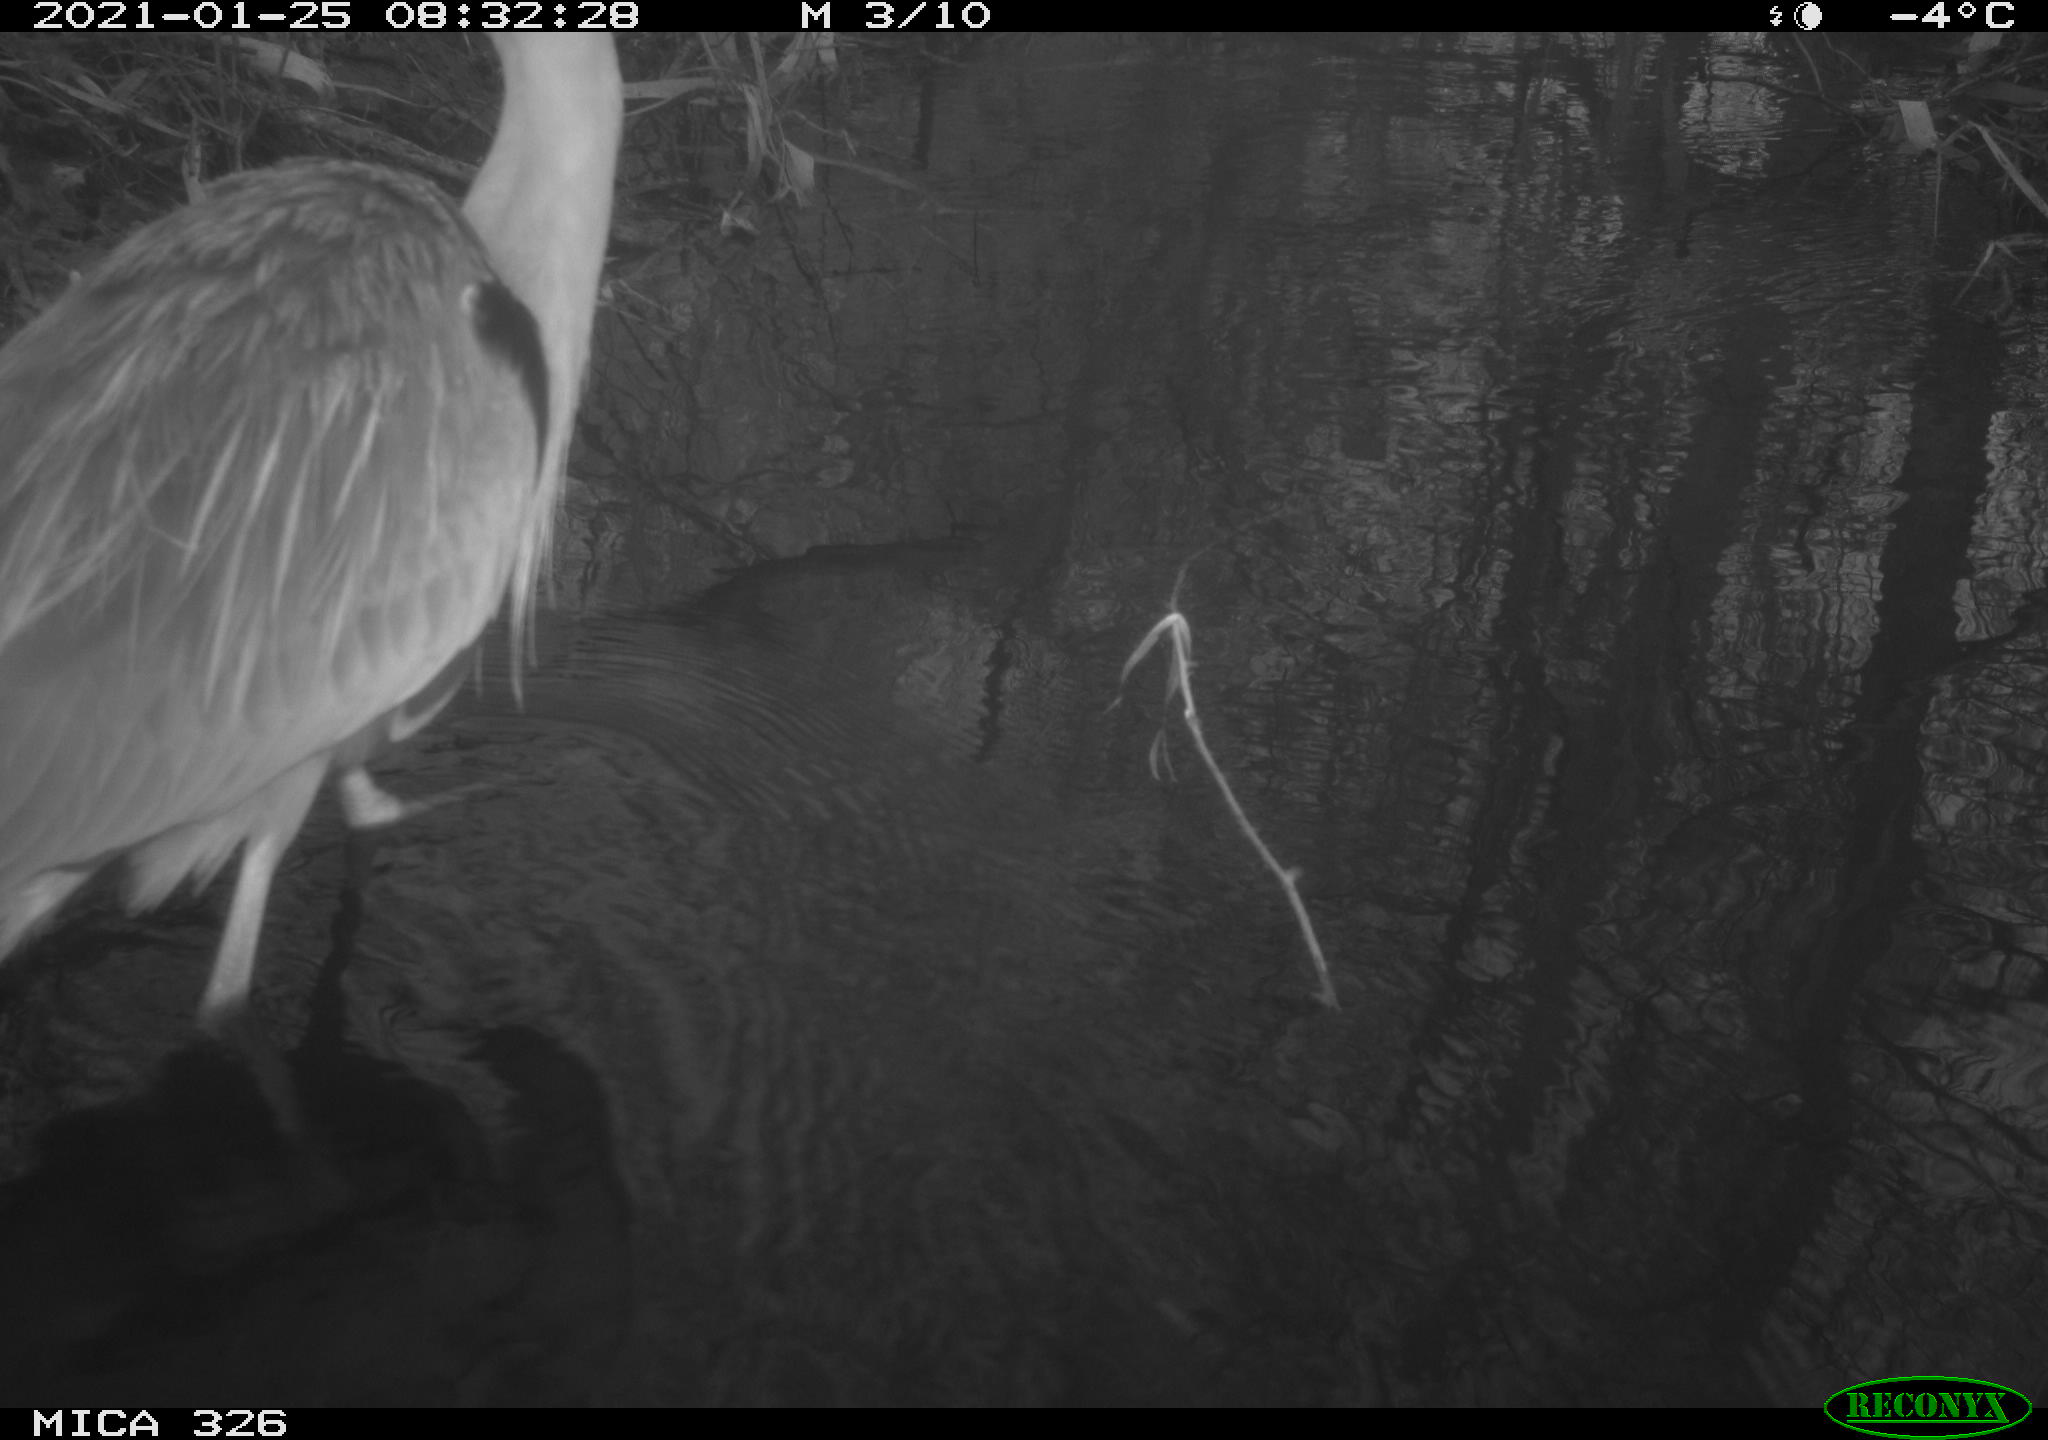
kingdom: Animalia
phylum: Chordata
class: Aves
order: Pelecaniformes
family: Ardeidae
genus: Ardea
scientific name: Ardea cinerea
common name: Grey heron
